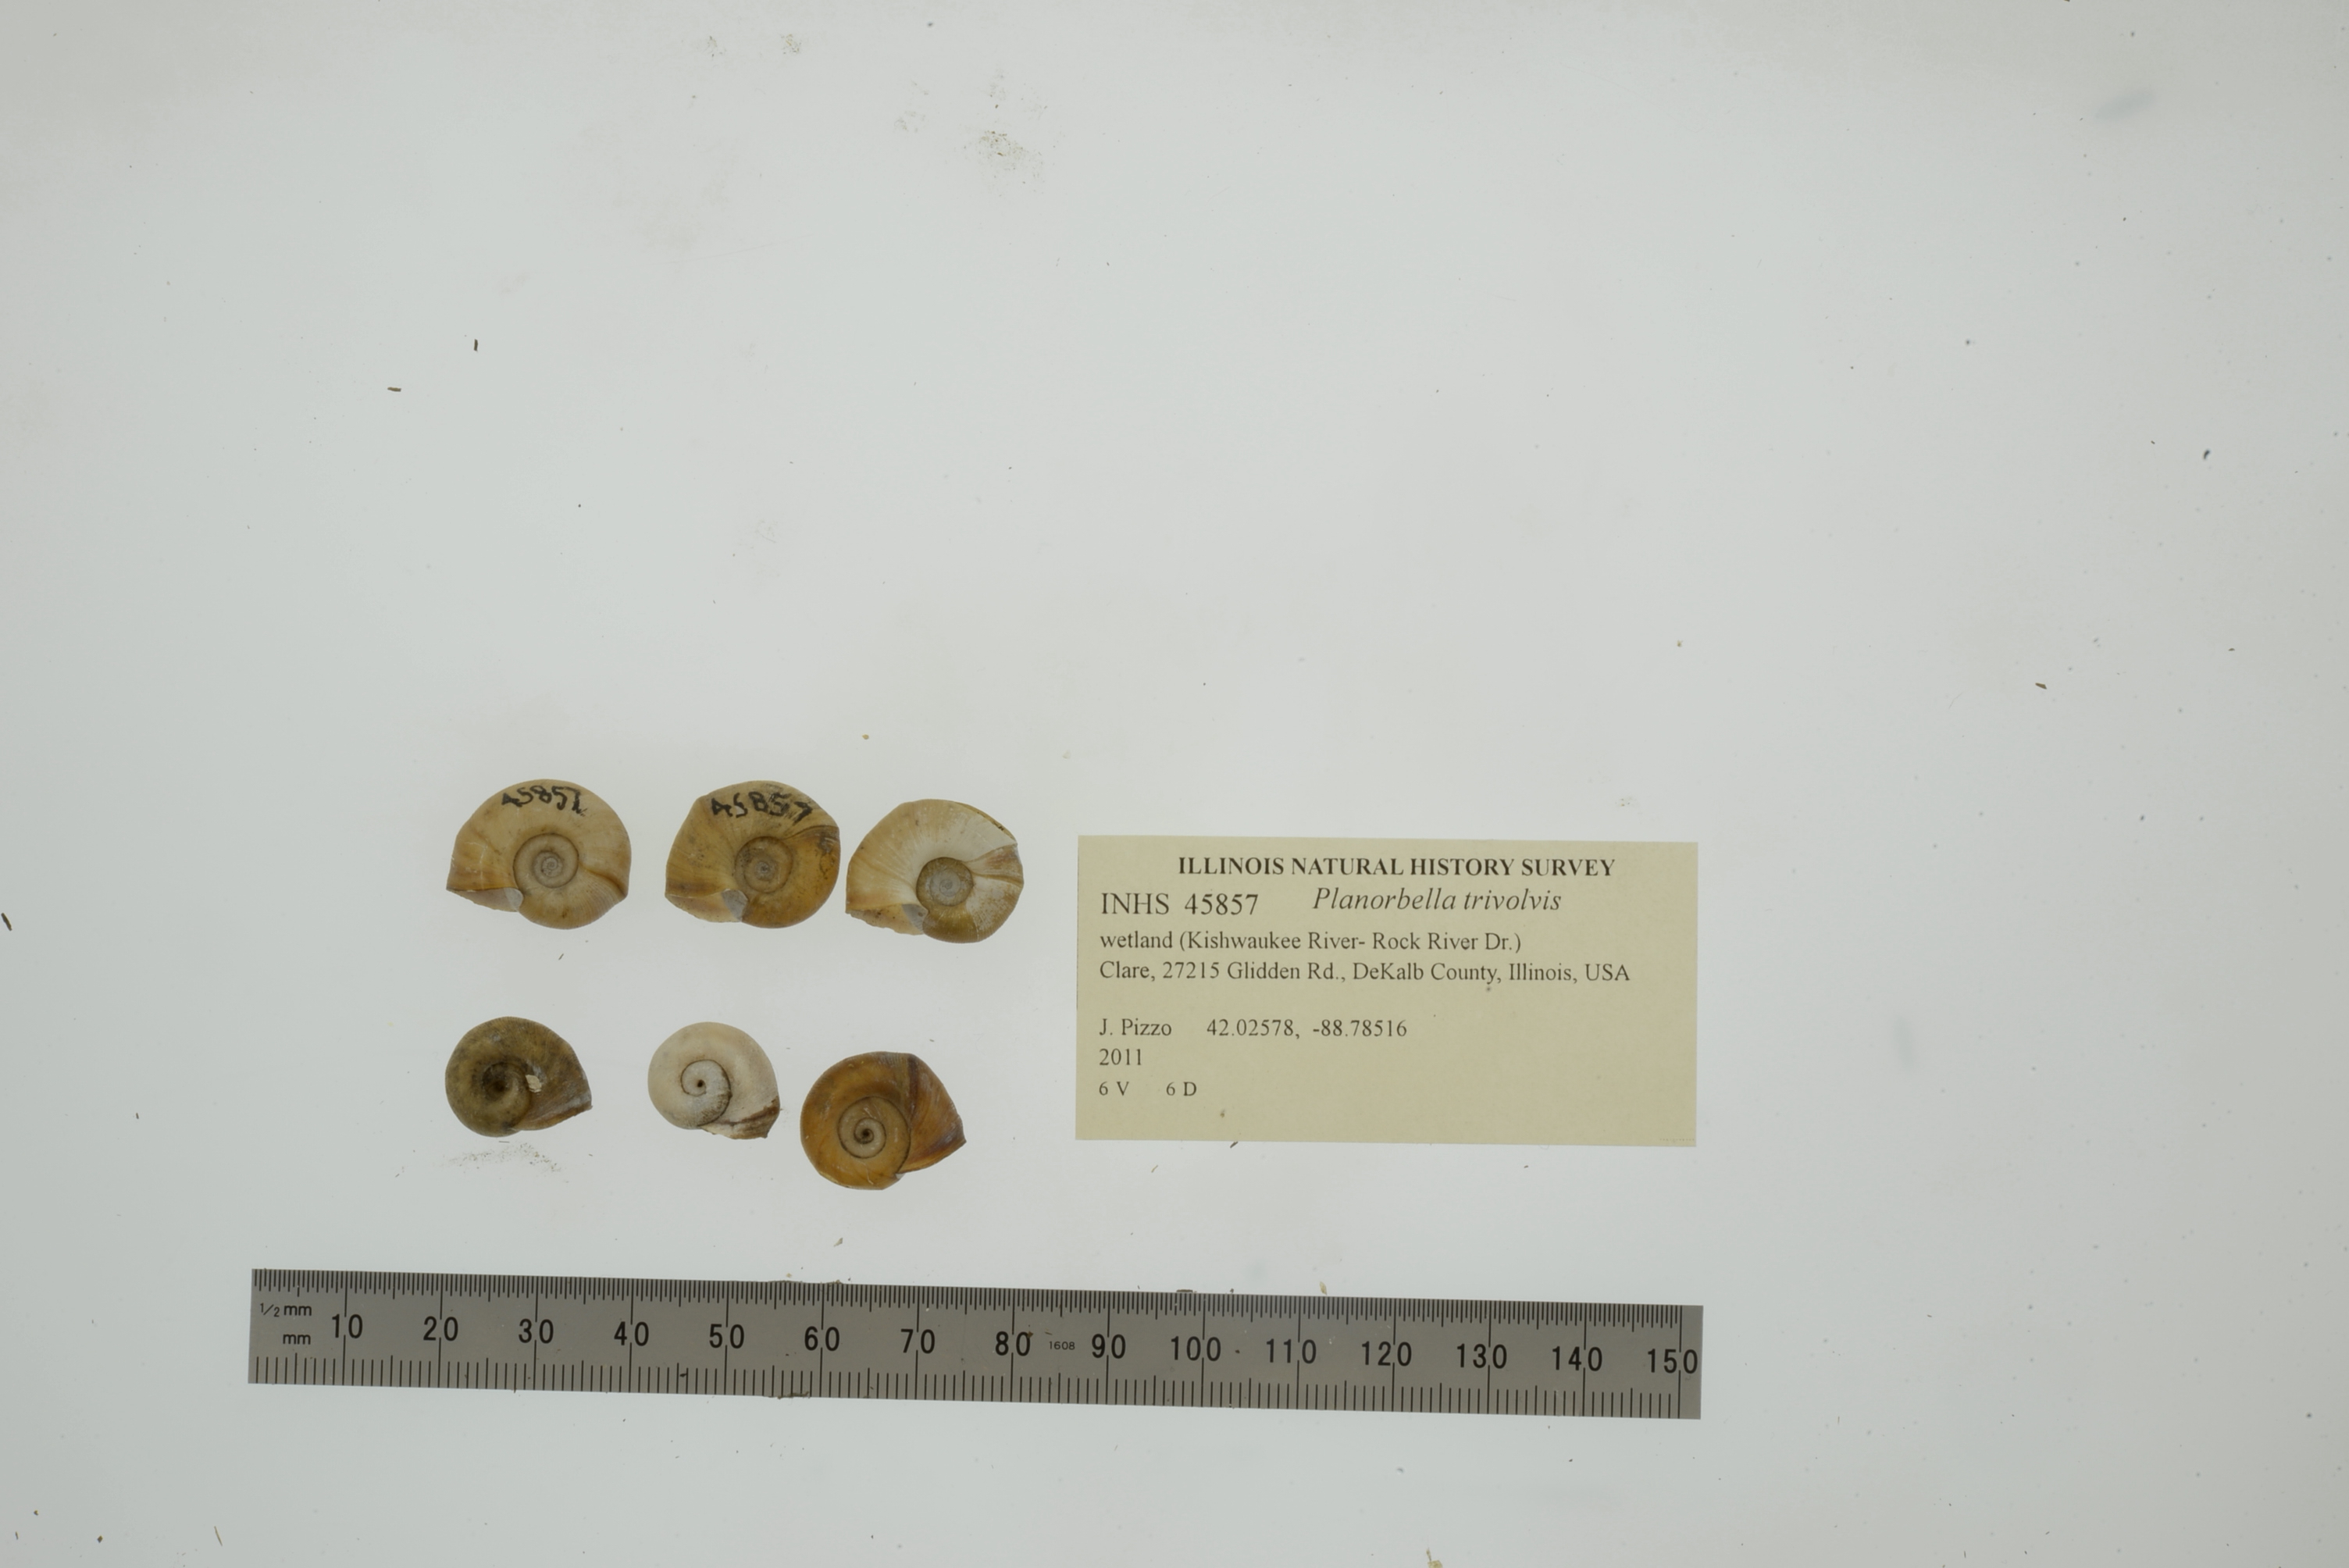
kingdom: Animalia
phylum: Mollusca
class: Gastropoda
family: Planorbidae
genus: Planorbella
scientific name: Planorbella trivolvis
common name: Marsh rams-horn
